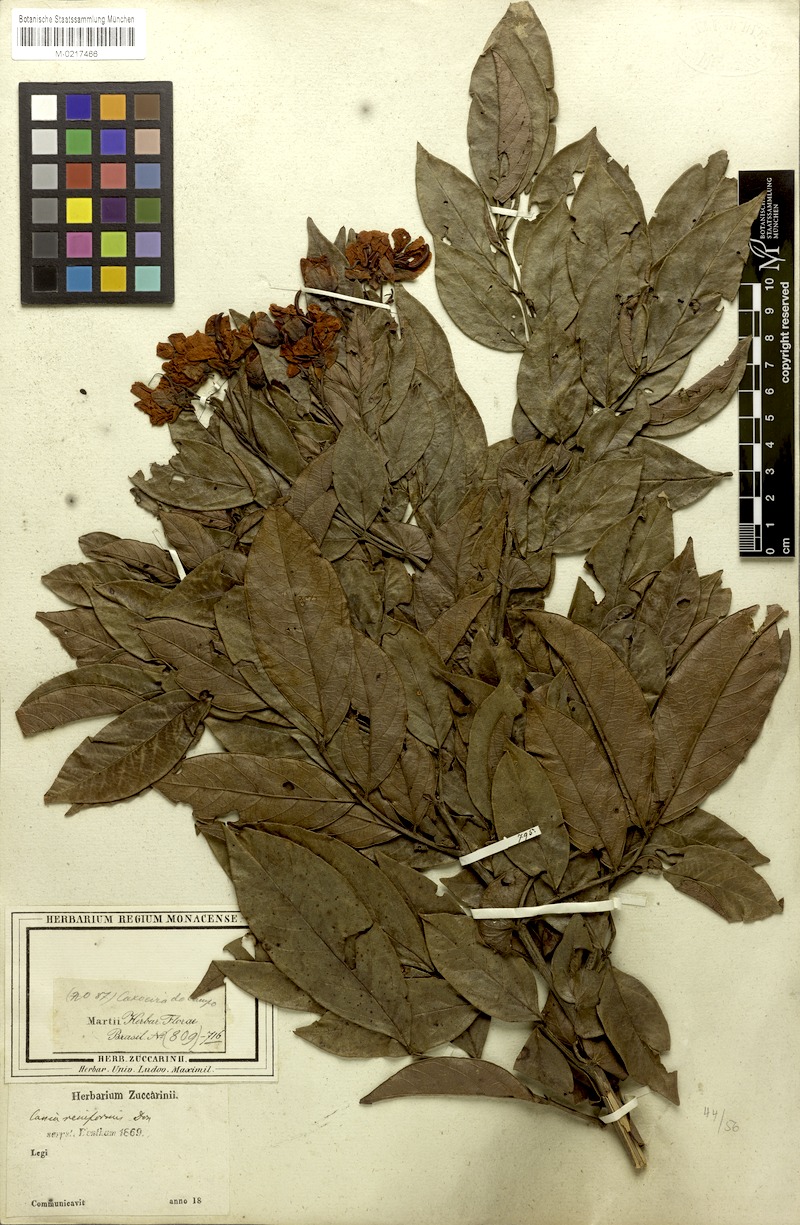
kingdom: Plantae
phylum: Tracheophyta
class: Magnoliopsida
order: Fabales
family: Fabaceae
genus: Senna
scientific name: Senna reniformis
